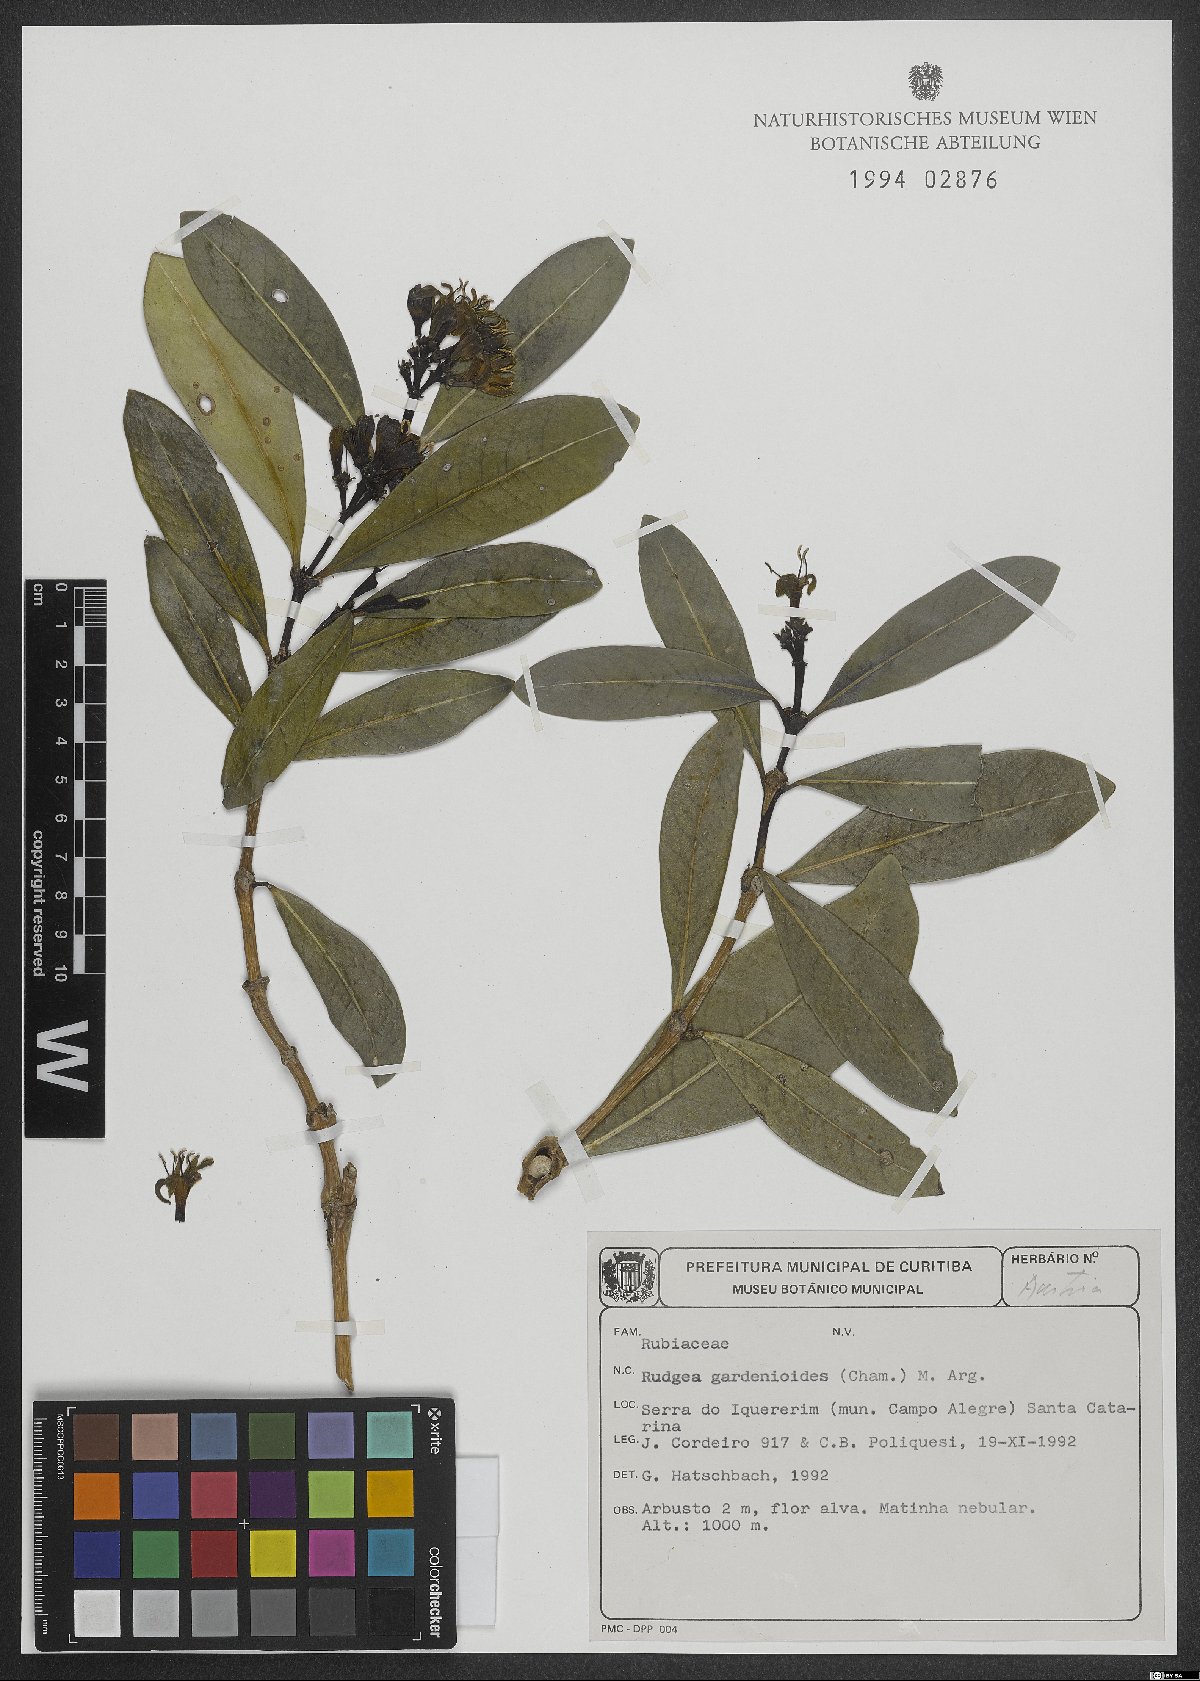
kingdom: Plantae
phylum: Tracheophyta
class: Magnoliopsida
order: Gentianales
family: Rubiaceae
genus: Rudgea
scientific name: Rudgea gardenioides
